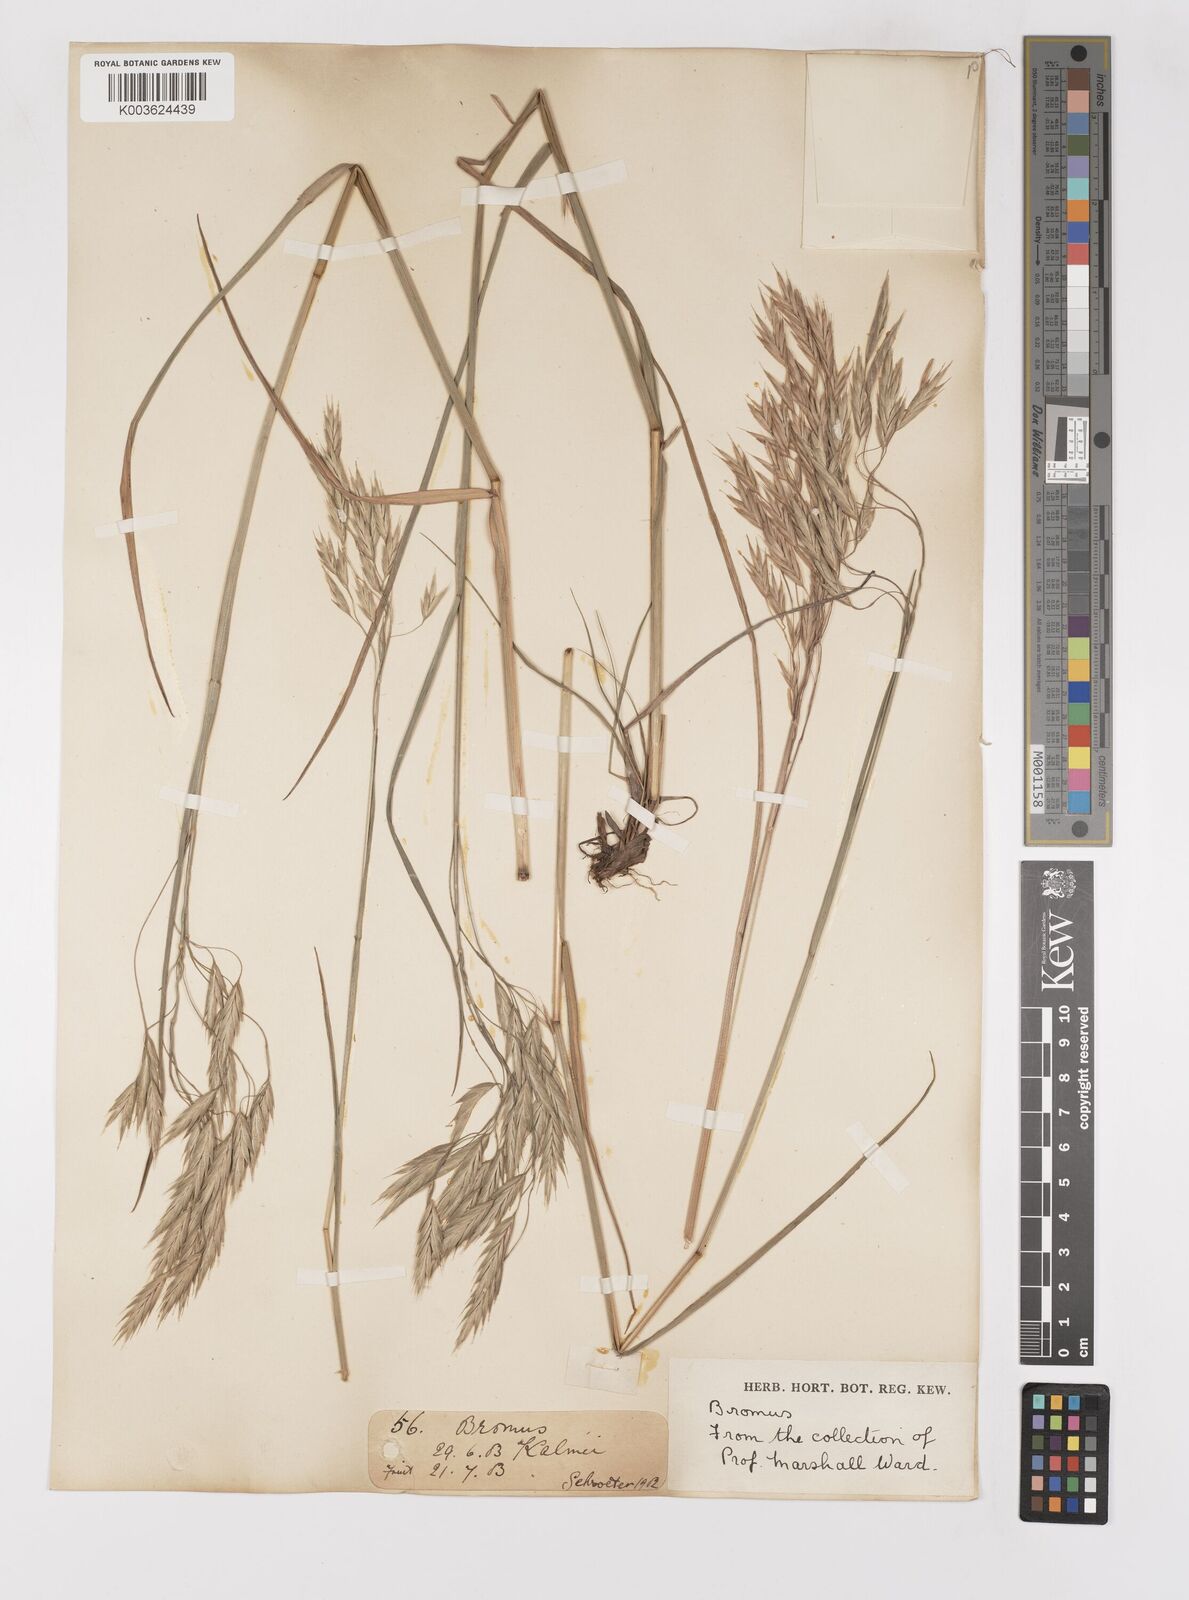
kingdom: Plantae
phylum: Tracheophyta
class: Liliopsida
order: Poales
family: Poaceae
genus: Bromus
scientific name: Bromus
